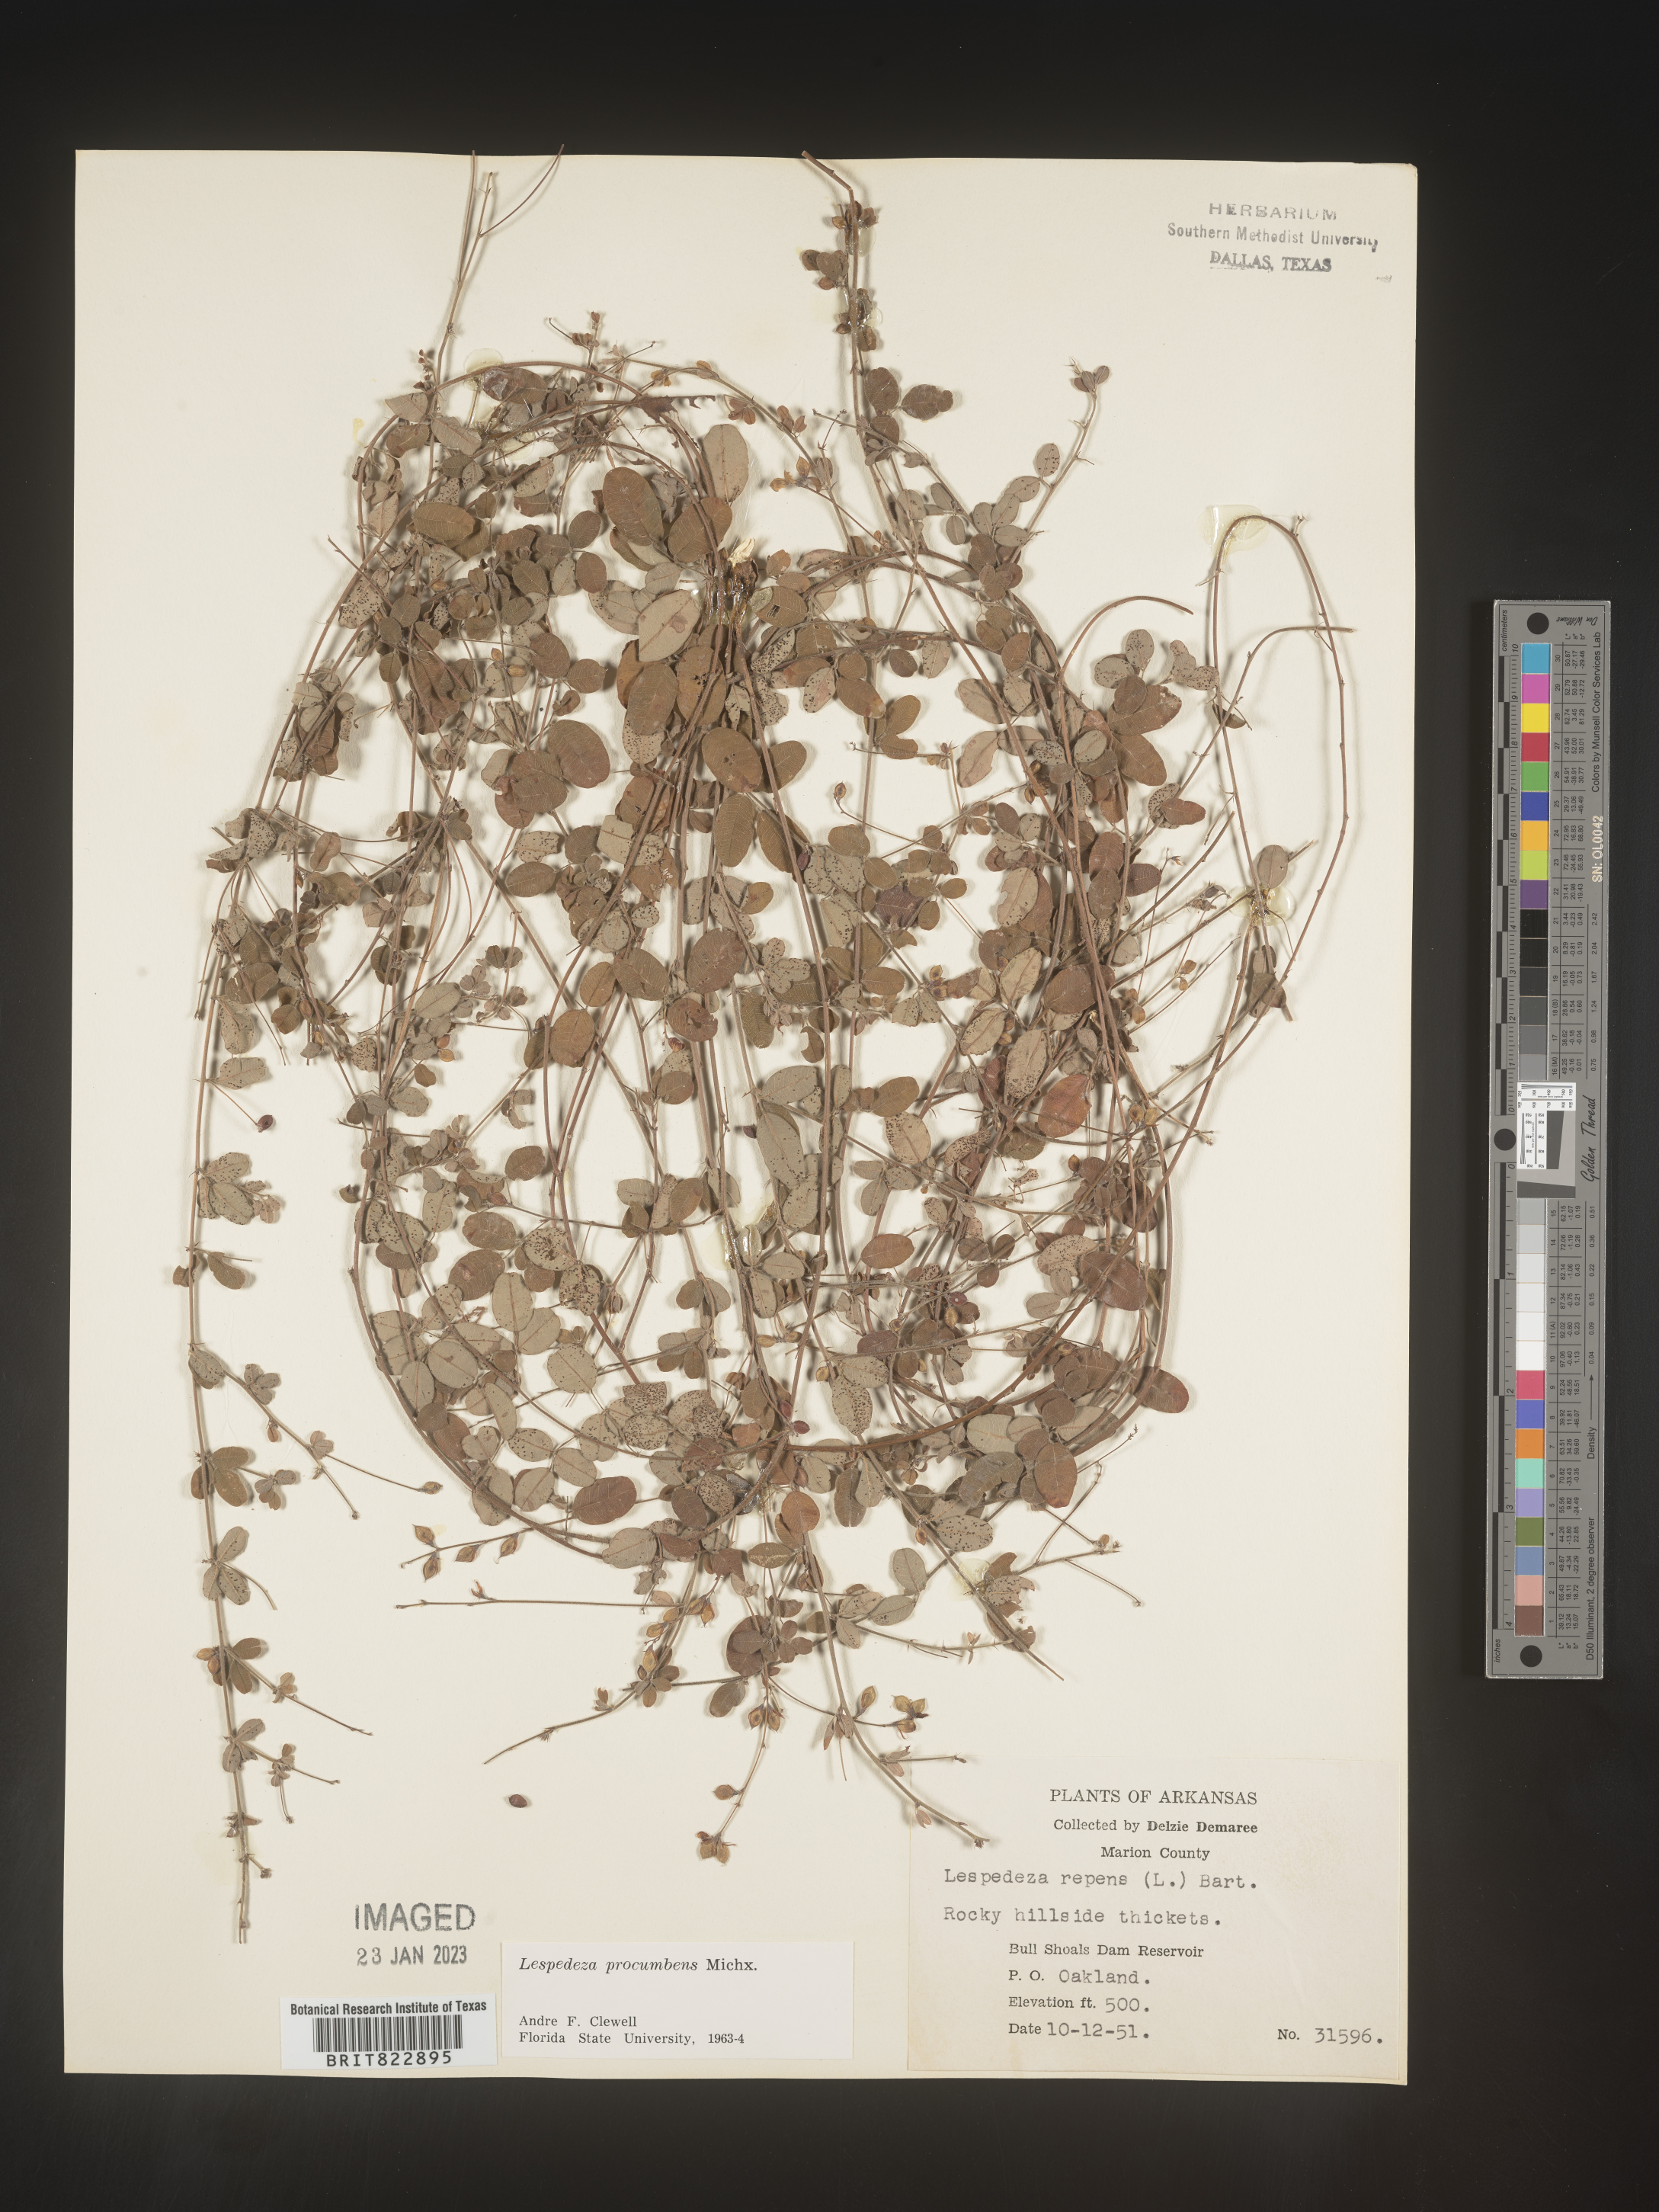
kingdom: Plantae
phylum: Tracheophyta
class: Magnoliopsida
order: Fabales
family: Fabaceae
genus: Lespedeza
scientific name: Lespedeza procumbens
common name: Downy trailing bush-clover
